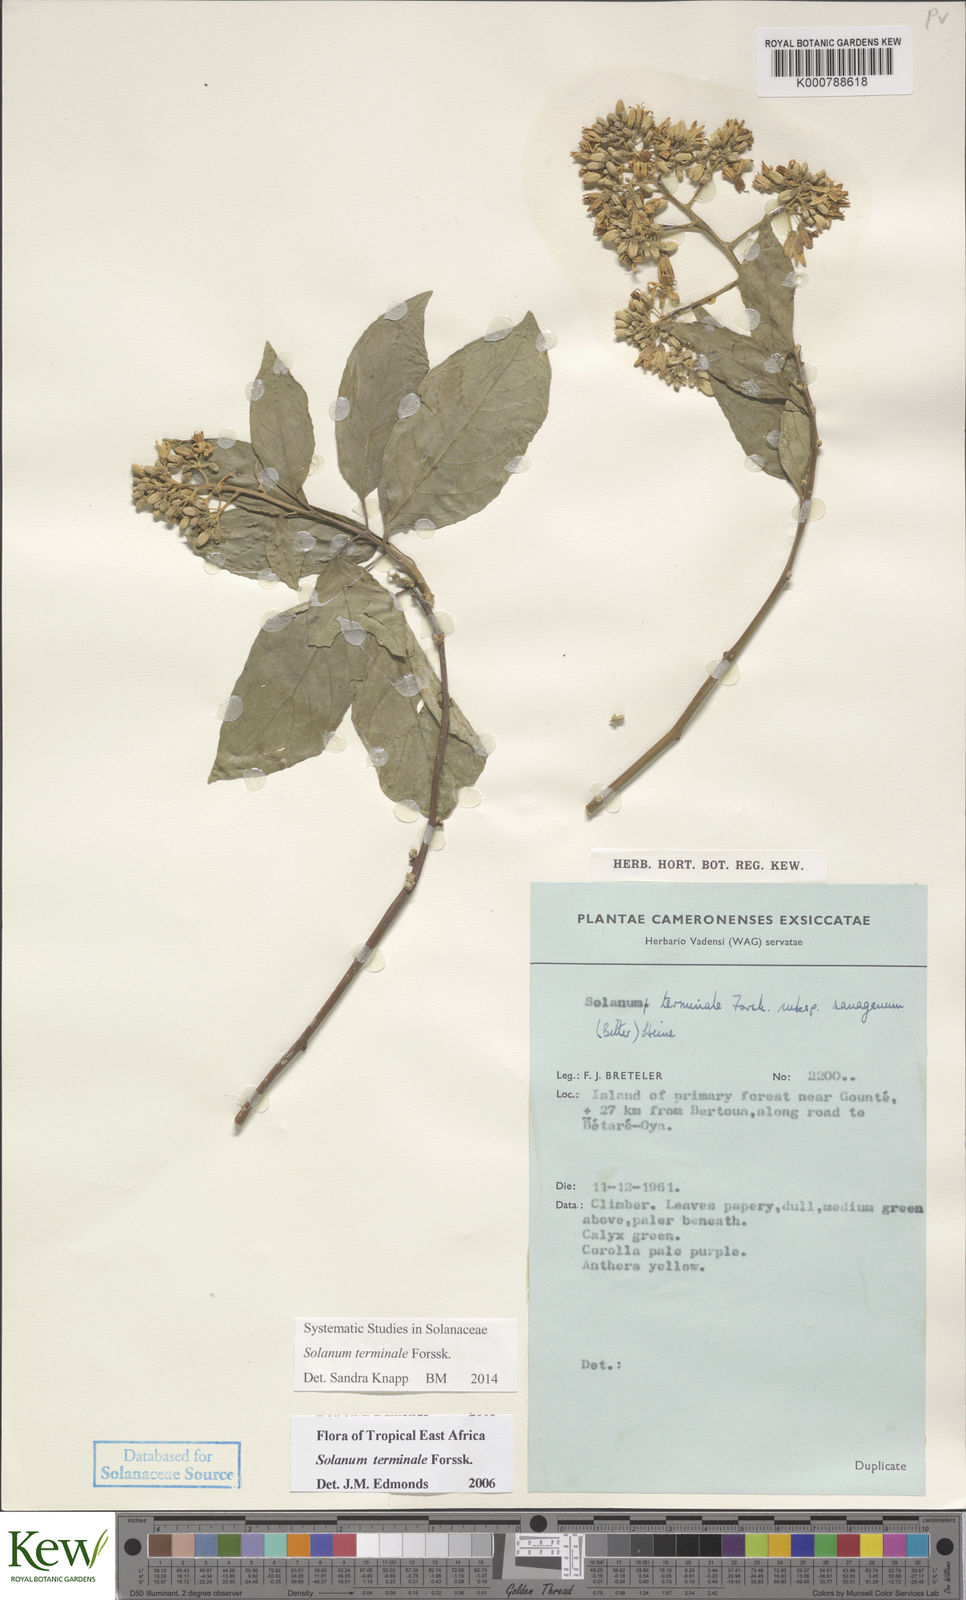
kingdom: Plantae
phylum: Tracheophyta
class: Magnoliopsida
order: Solanales
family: Solanaceae
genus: Solanum
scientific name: Solanum terminale
